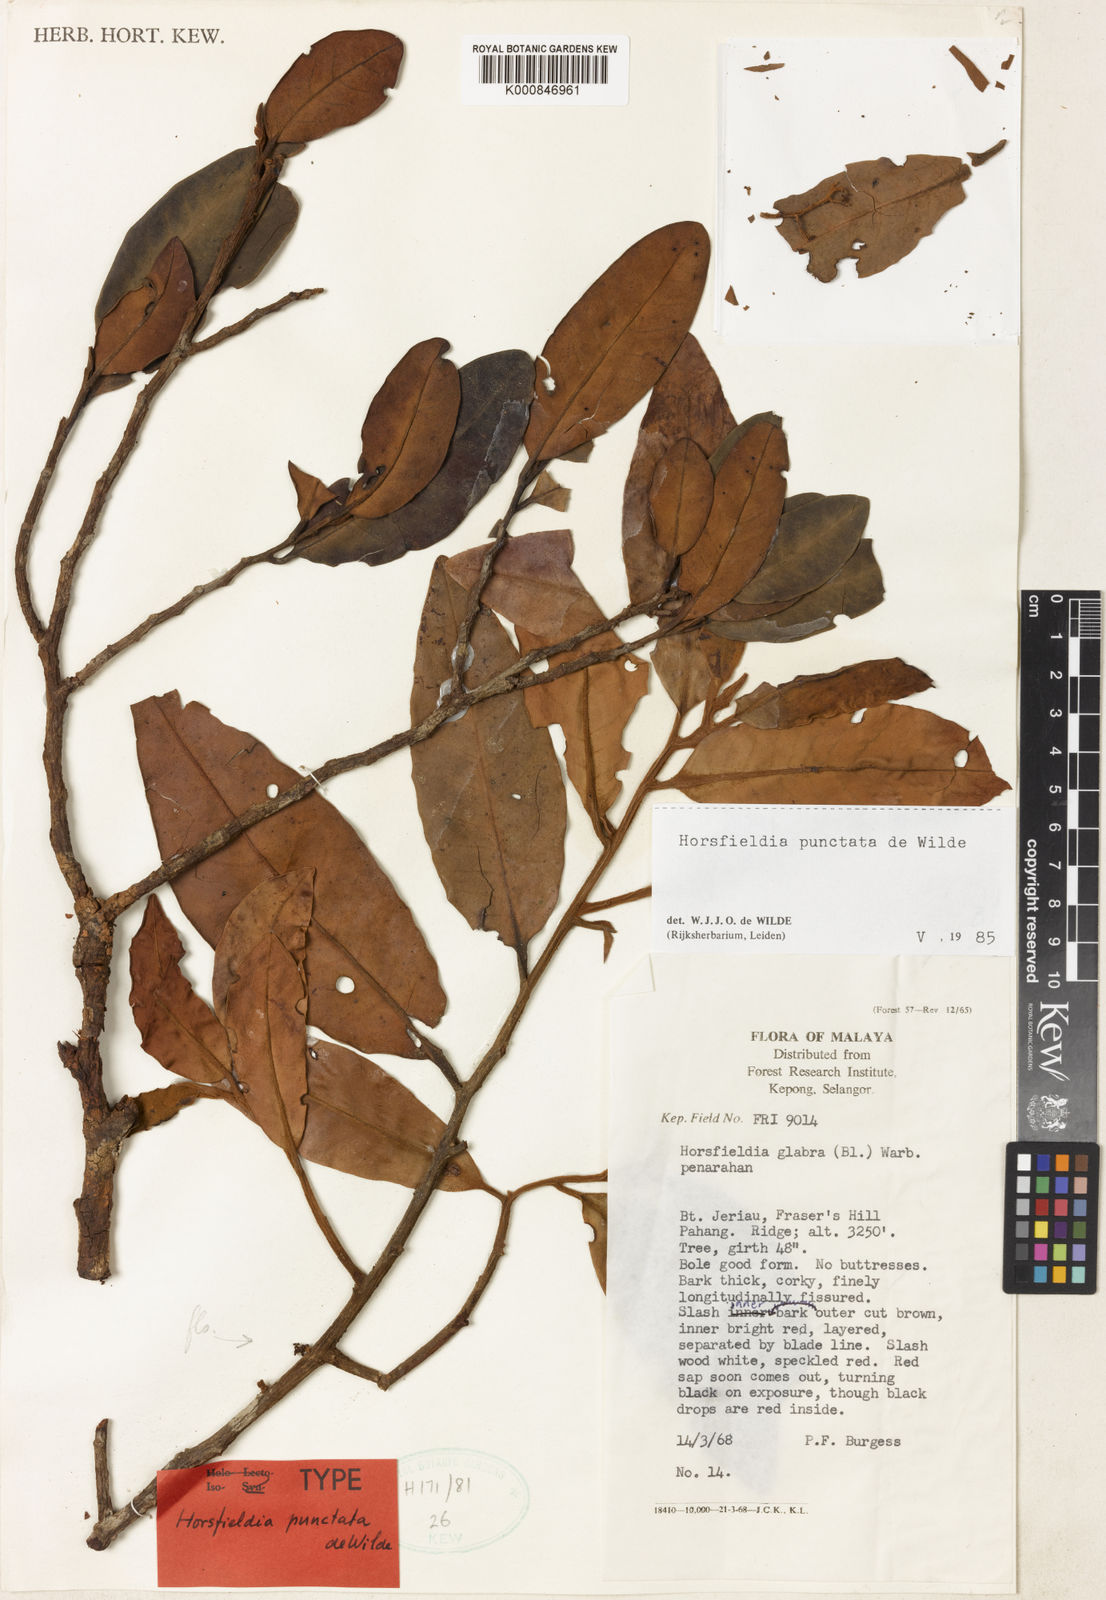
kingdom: Plantae
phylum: Tracheophyta
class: Magnoliopsida
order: Magnoliales
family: Myristicaceae
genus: Horsfieldia
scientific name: Horsfieldia punctata
